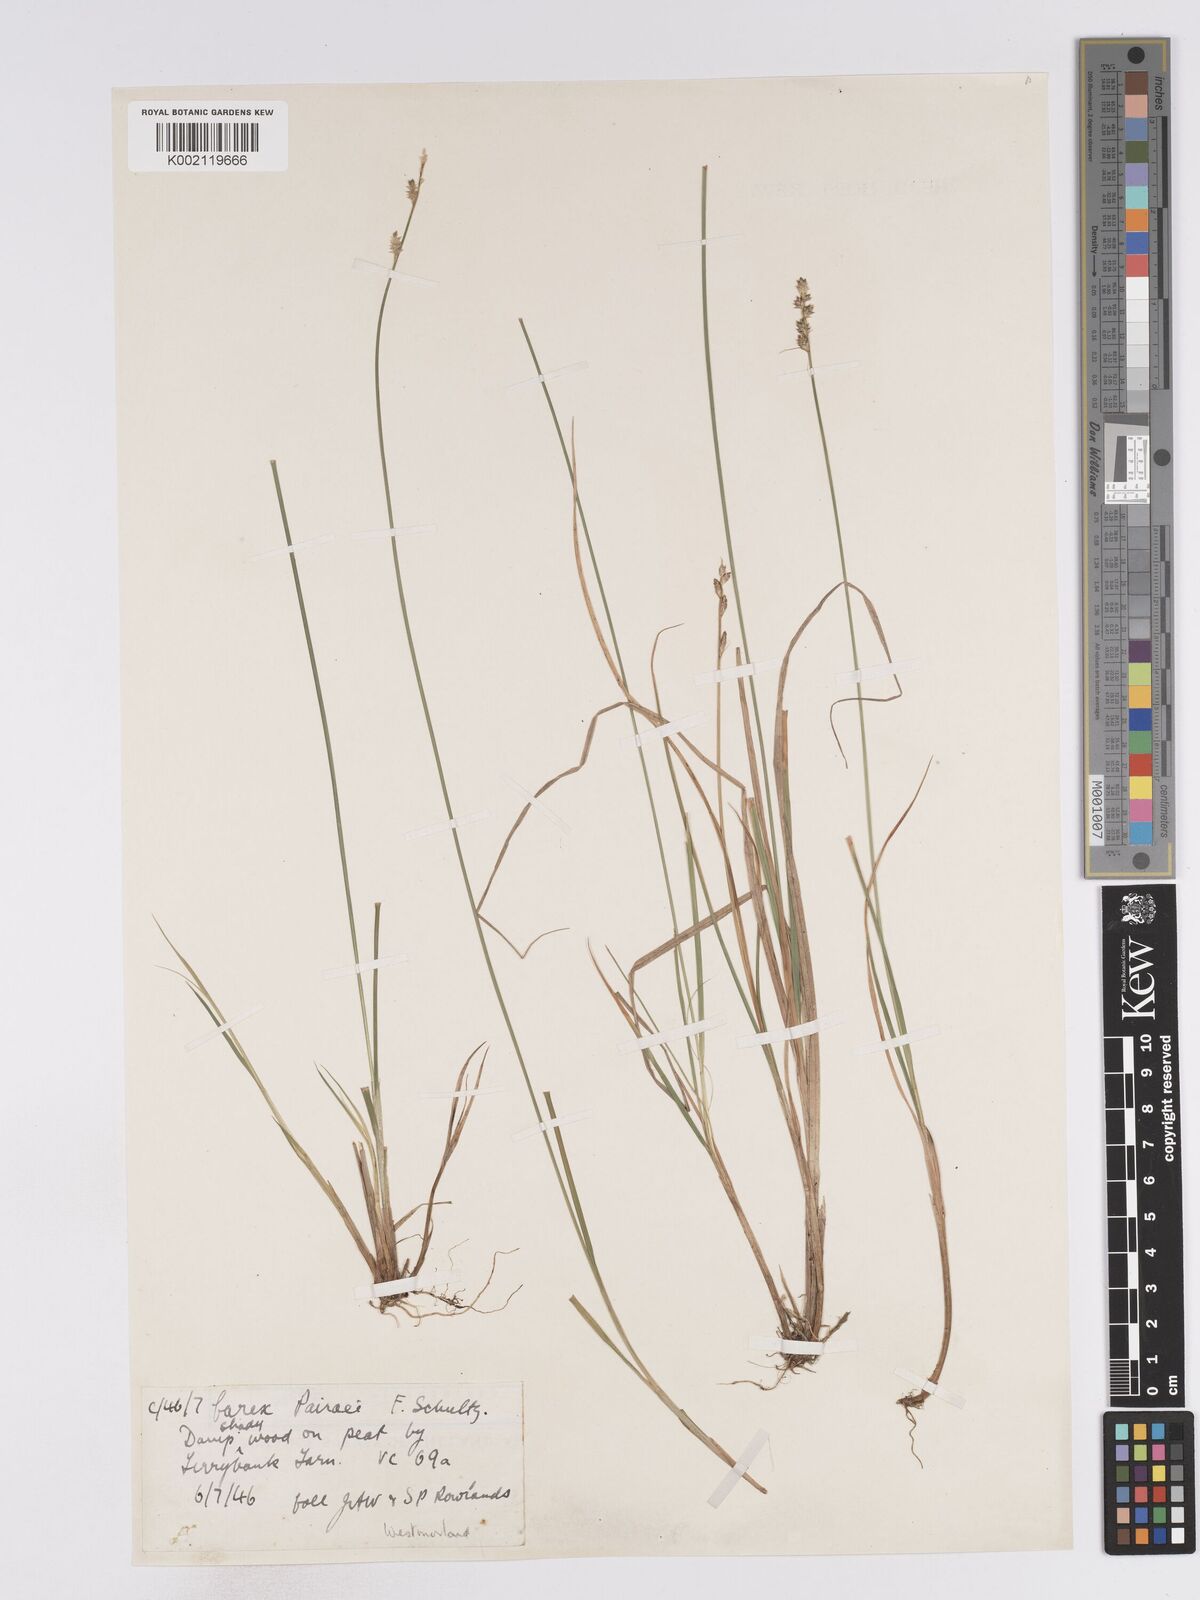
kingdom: Plantae
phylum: Tracheophyta
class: Liliopsida
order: Poales
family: Cyperaceae
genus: Carex
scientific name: Carex curta
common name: White sedge
